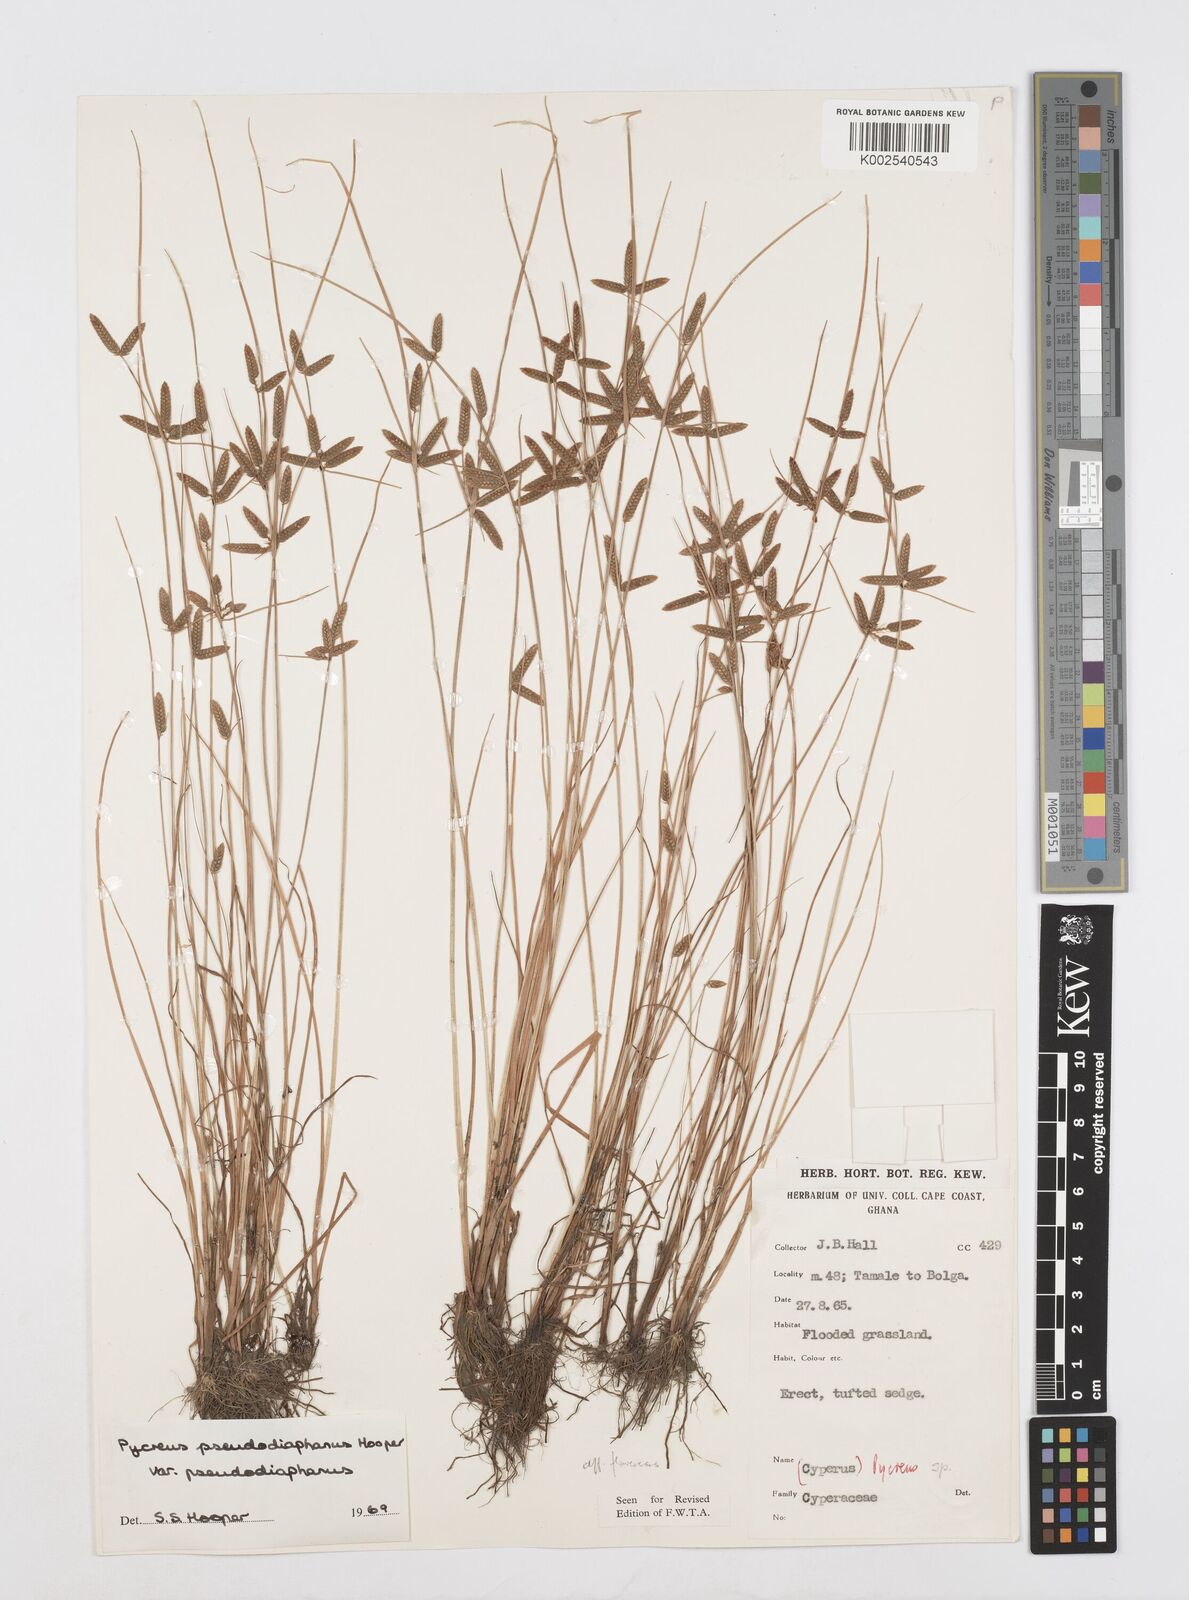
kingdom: Plantae
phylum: Tracheophyta
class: Liliopsida
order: Poales
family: Cyperaceae
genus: Cyperus
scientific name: Cyperus pseudodiaphanus
